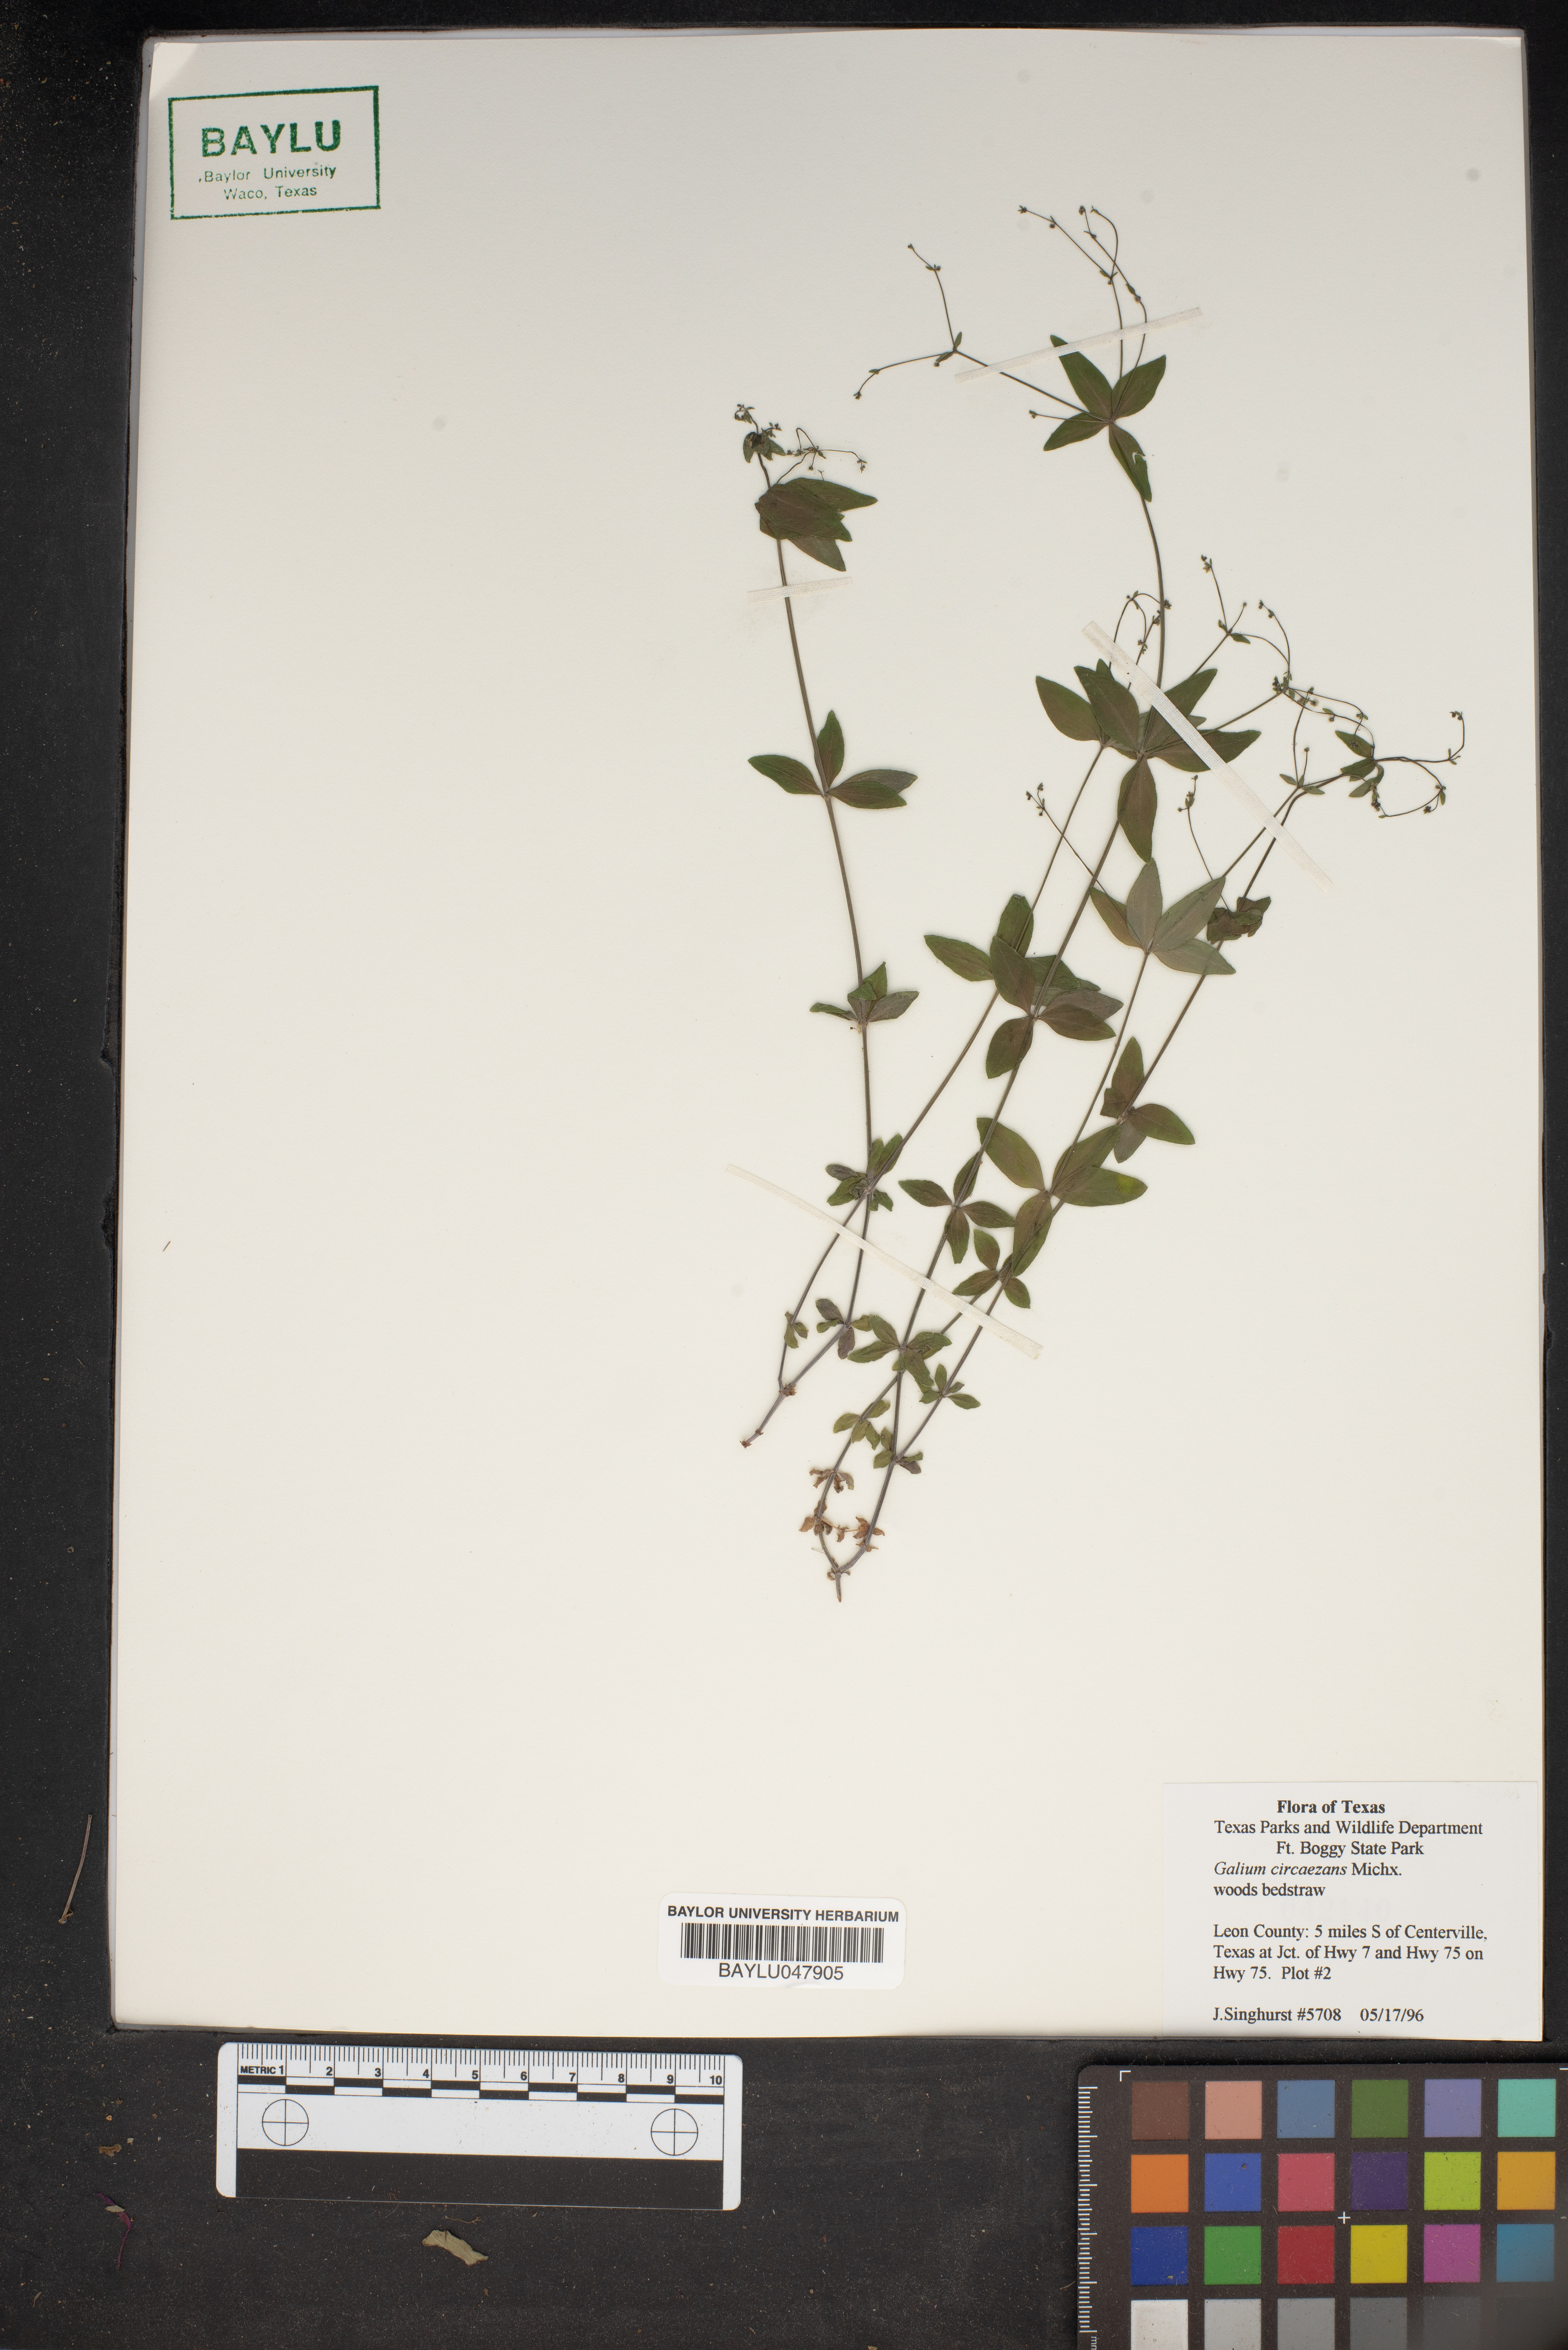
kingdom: Plantae
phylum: Tracheophyta
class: Magnoliopsida
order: Gentianales
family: Rubiaceae
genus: Galium
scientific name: Galium circaezans
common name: Forest bedstraw
